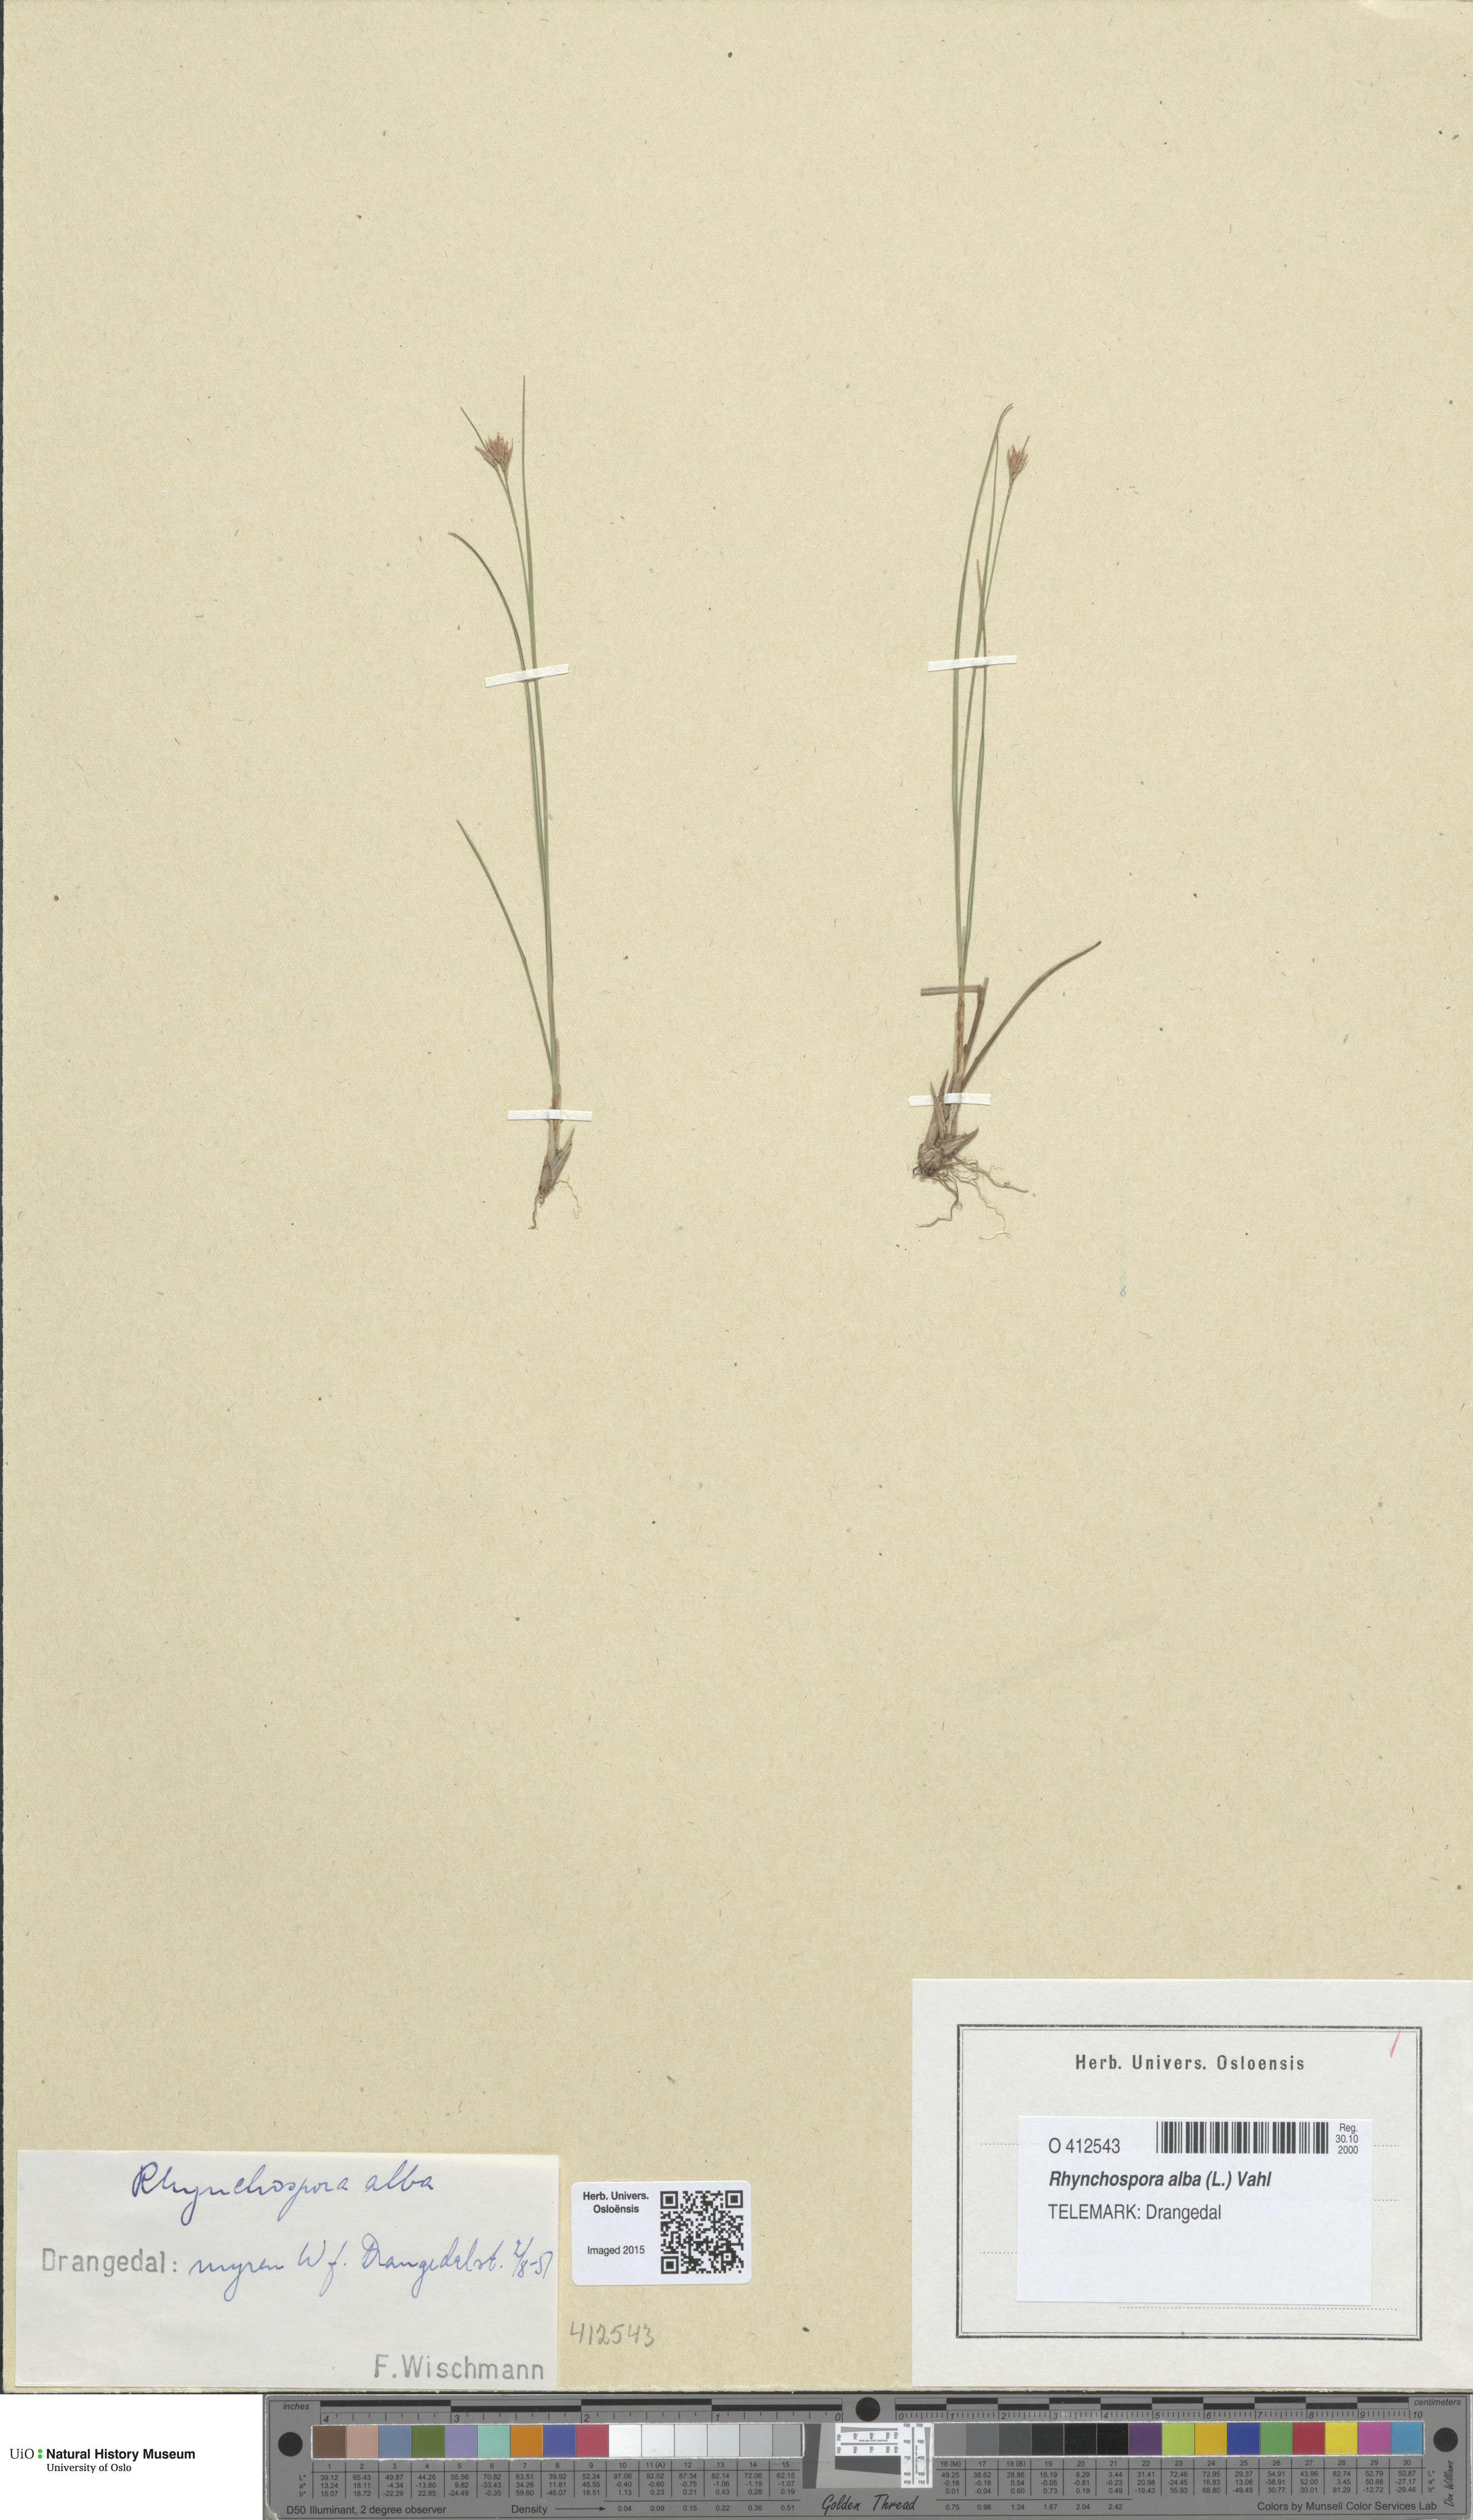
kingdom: Plantae
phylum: Tracheophyta
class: Liliopsida
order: Poales
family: Cyperaceae
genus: Rhynchospora
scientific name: Rhynchospora alba
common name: White beak-sedge
